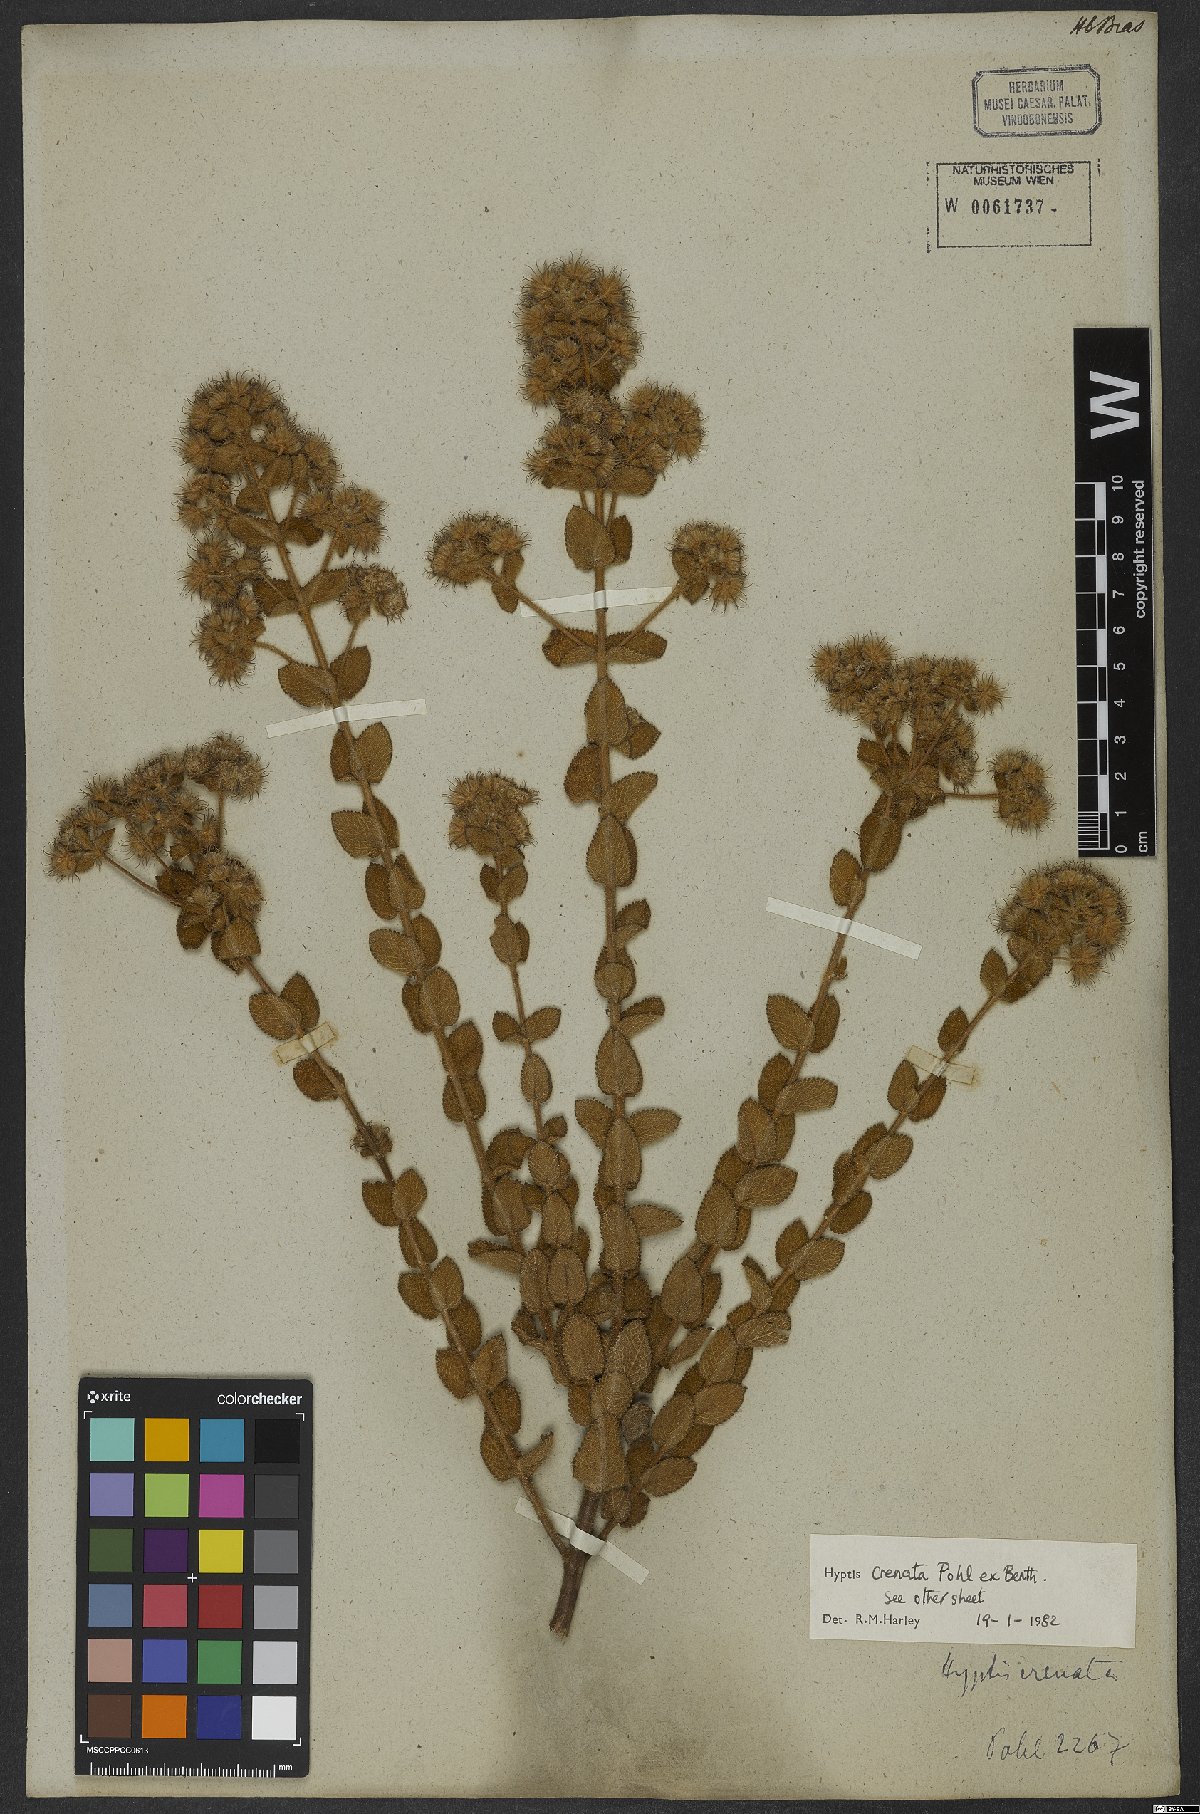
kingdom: Plantae
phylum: Tracheophyta
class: Magnoliopsida
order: Lamiales
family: Lamiaceae
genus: Hyptis
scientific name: Hyptis crenata
